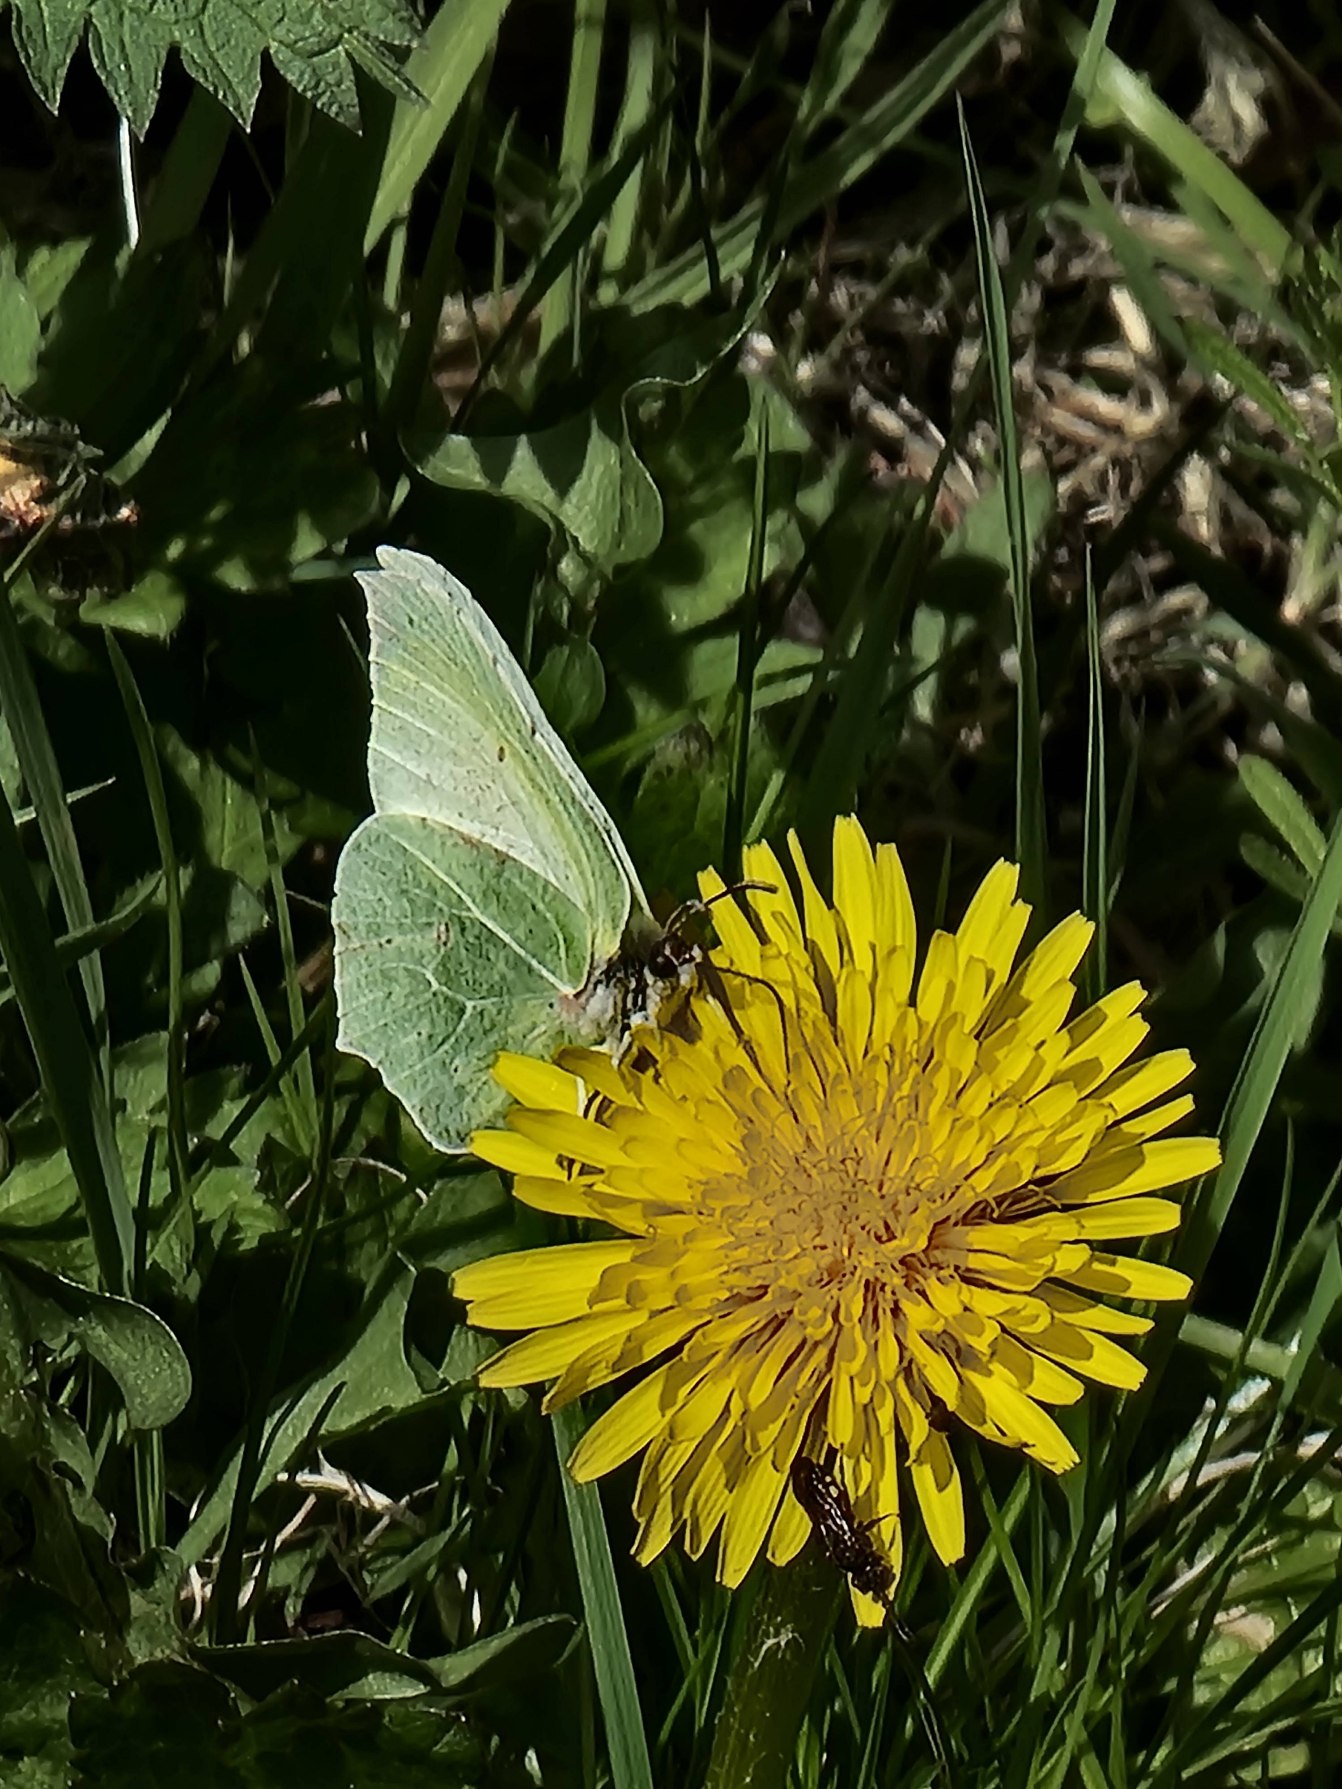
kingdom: Animalia
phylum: Arthropoda
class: Insecta
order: Lepidoptera
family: Pieridae
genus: Gonepteryx
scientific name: Gonepteryx rhamni
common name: Citronsommerfugl
